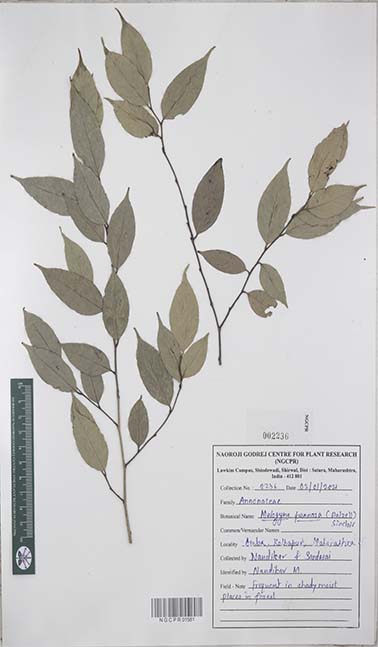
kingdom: Plantae
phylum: Tracheophyta
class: Magnoliopsida
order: Magnoliales
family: Annonaceae
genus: Meiogyne
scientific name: Meiogyne pannosa
